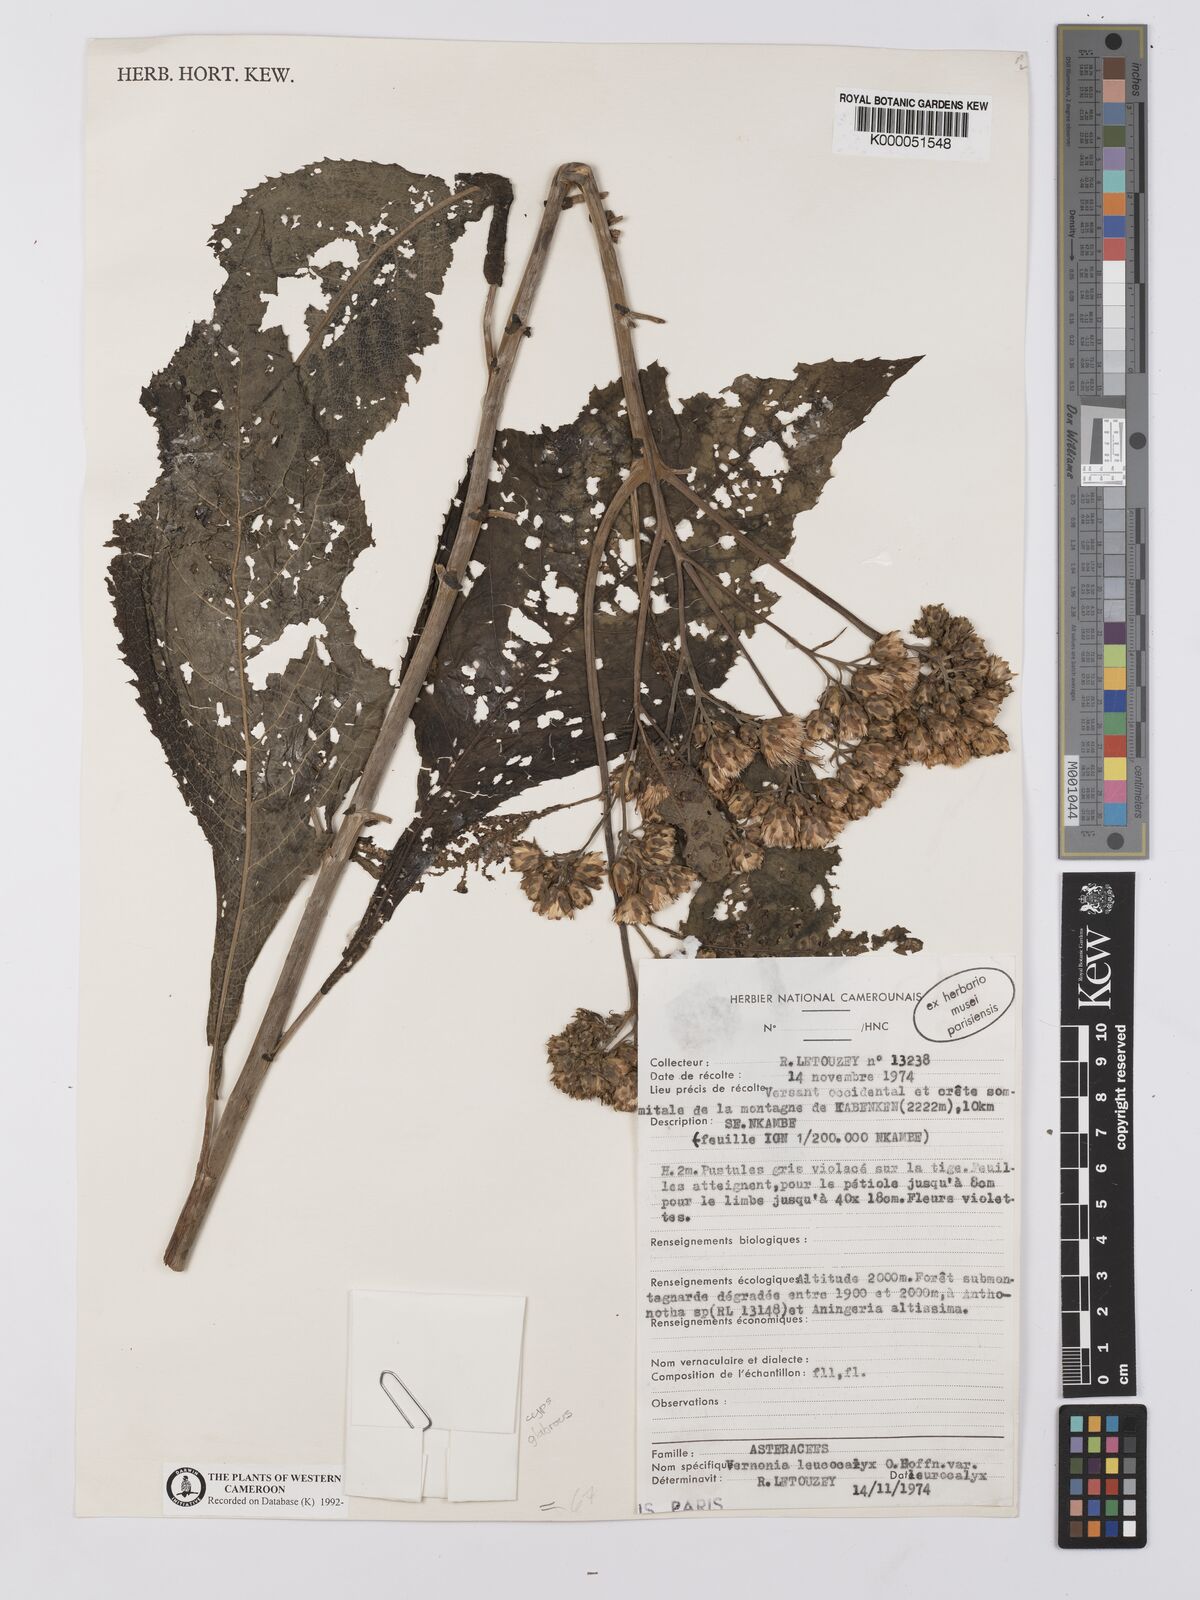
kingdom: Plantae
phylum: Tracheophyta
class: Magnoliopsida
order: Asterales
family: Asteraceae
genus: Baccharoides
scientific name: Baccharoides calvoana
